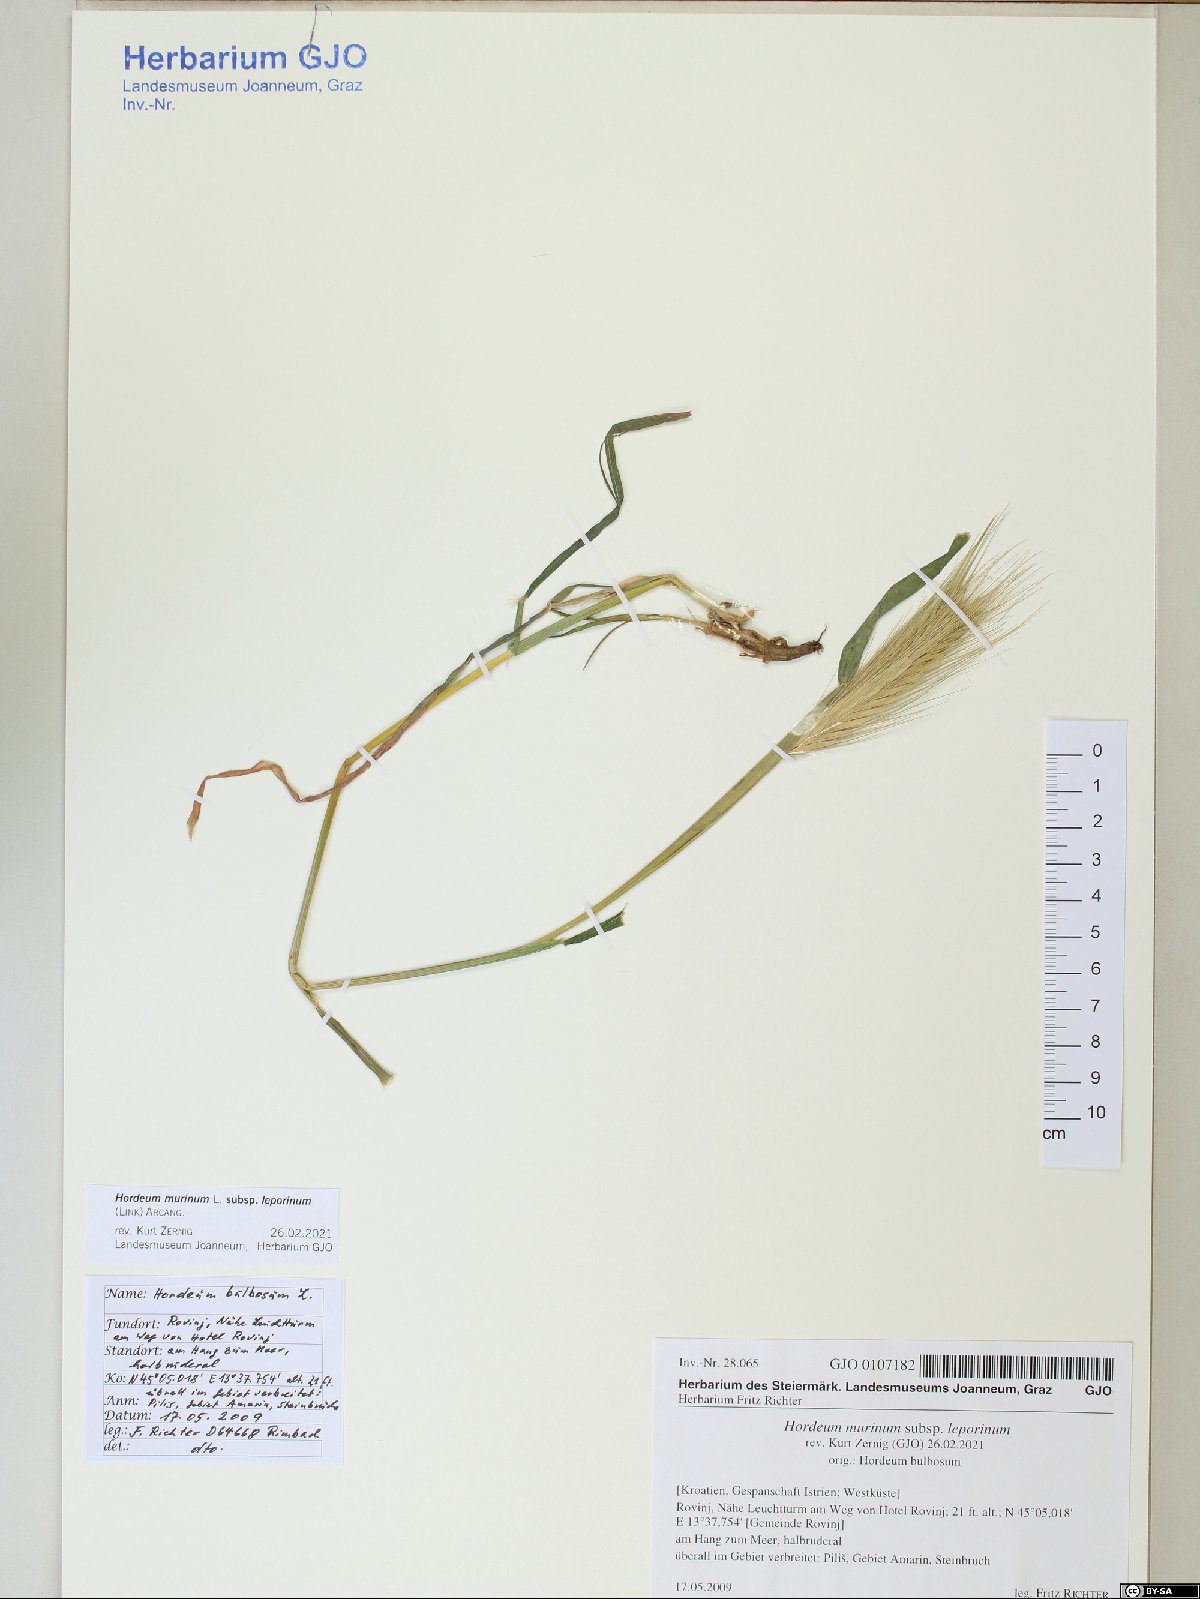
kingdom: Plantae
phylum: Tracheophyta
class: Liliopsida
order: Poales
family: Poaceae
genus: Hordeum
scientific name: Hordeum murinum
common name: Wall barley
